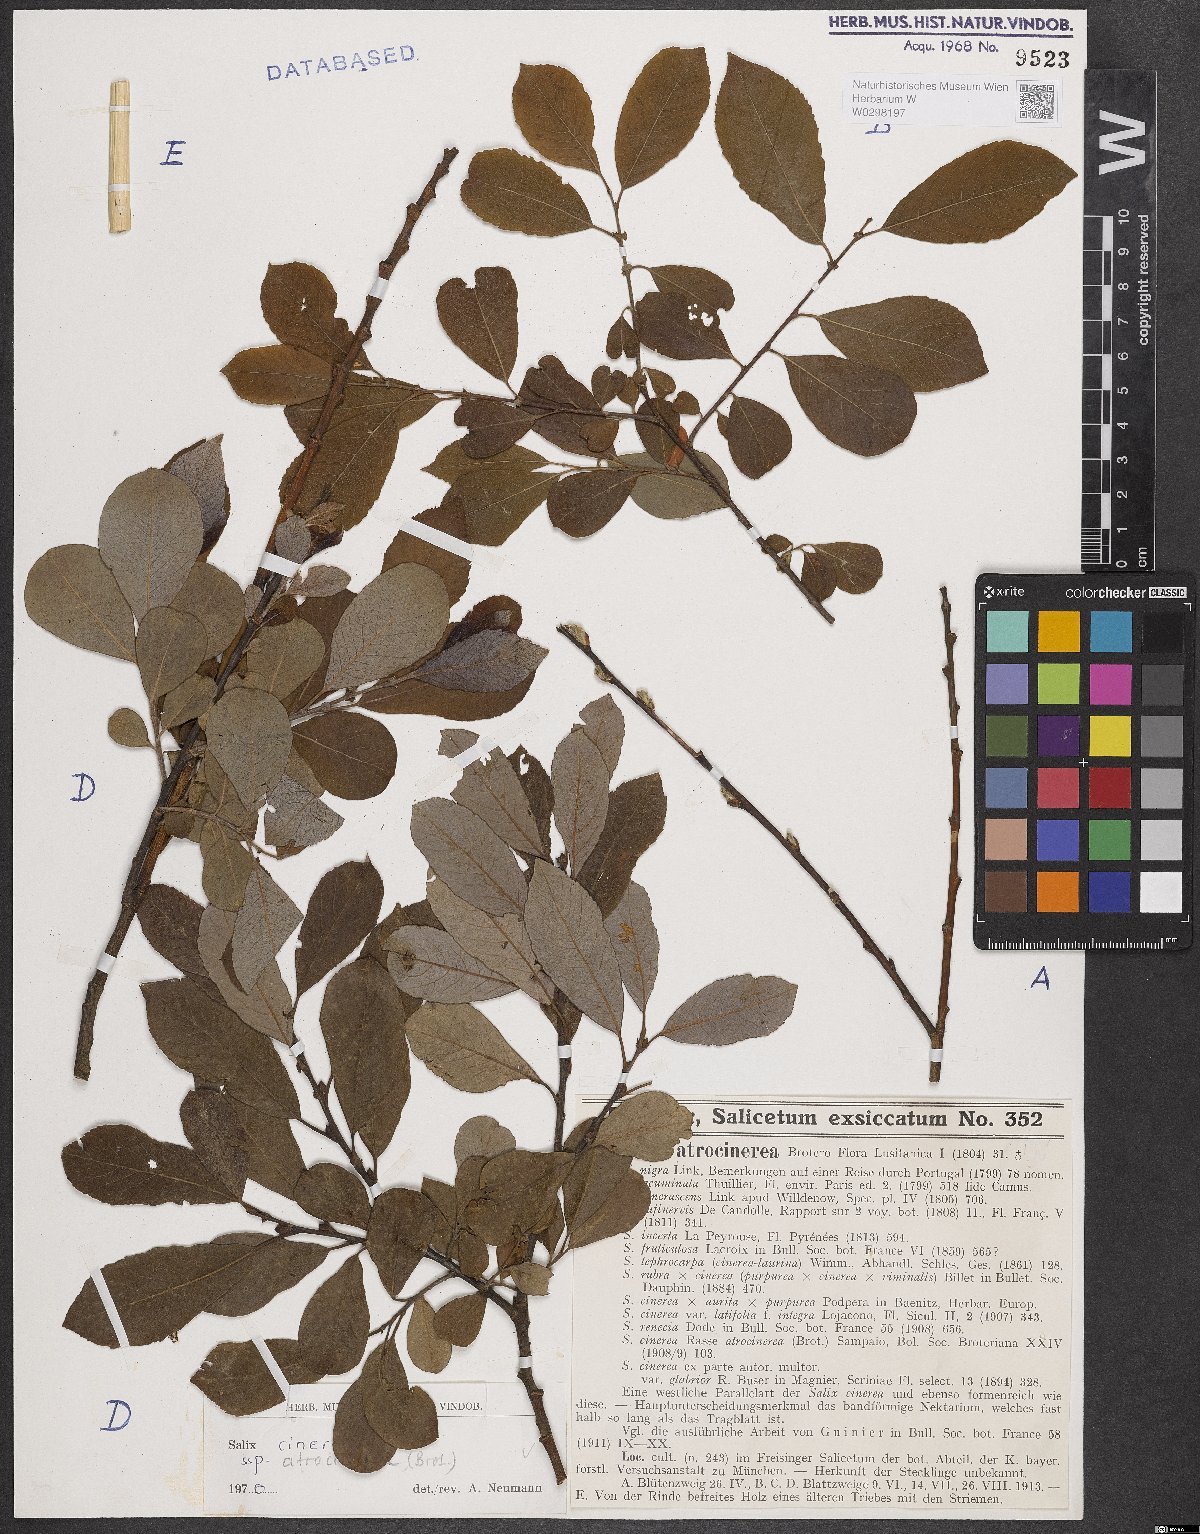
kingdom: Plantae
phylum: Tracheophyta
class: Magnoliopsida
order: Malpighiales
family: Salicaceae
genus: Salix
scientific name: Salix atrocinerea
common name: Rusty willow
